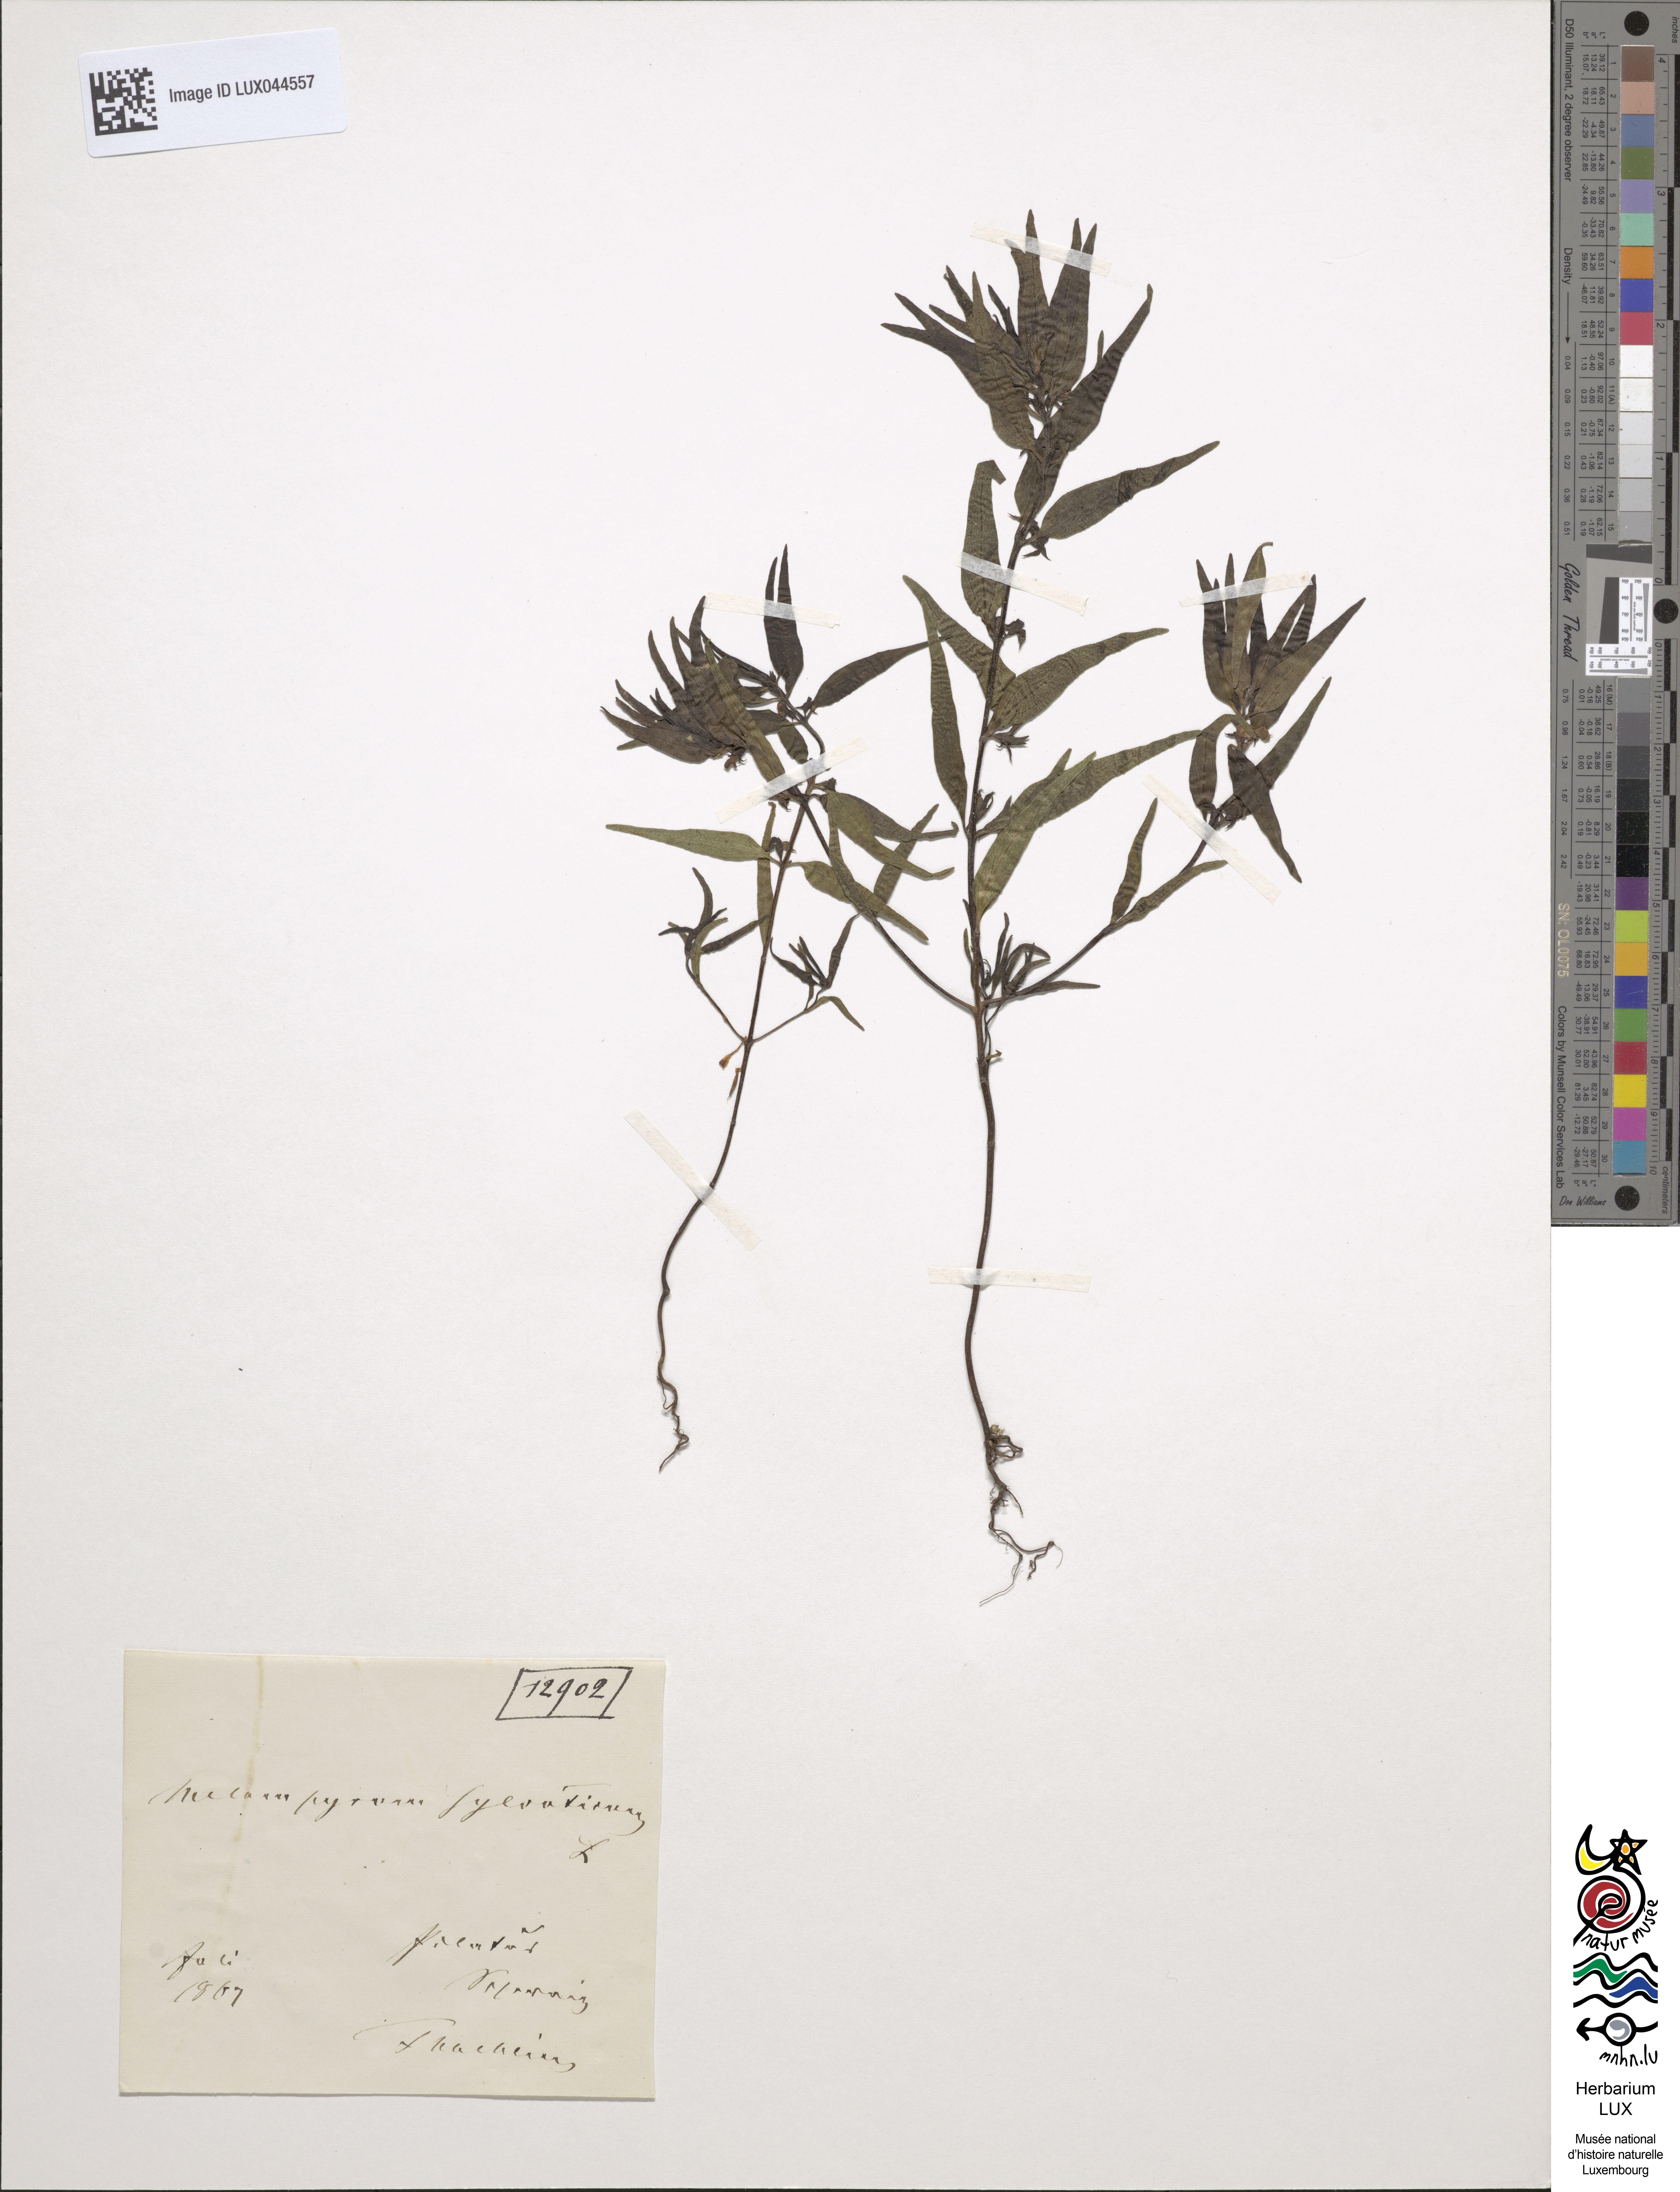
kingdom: Plantae
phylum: Tracheophyta
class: Magnoliopsida
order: Lamiales
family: Orobanchaceae
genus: Melampyrum
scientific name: Melampyrum sylvaticum
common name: Small cow-wheat
